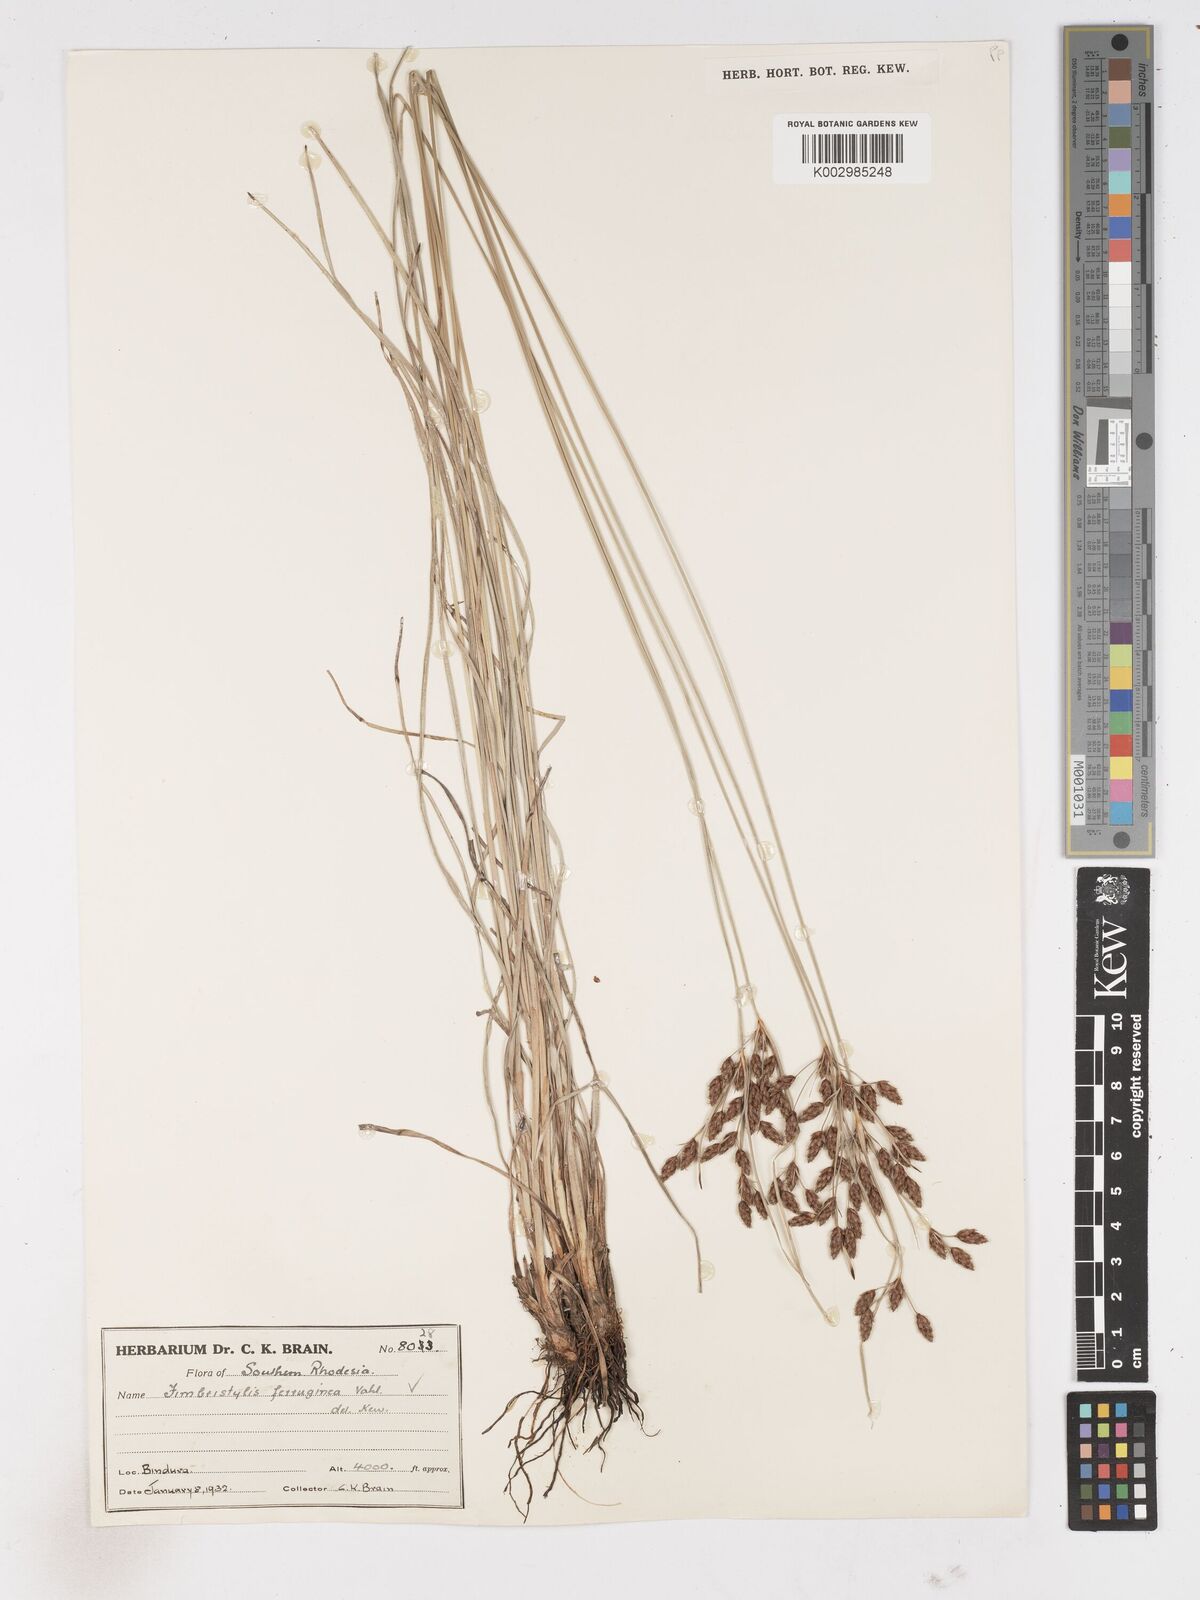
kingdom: Plantae
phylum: Tracheophyta
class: Liliopsida
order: Poales
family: Cyperaceae
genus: Fimbristylis
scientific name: Fimbristylis ferruginea
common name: West indian fimbry
